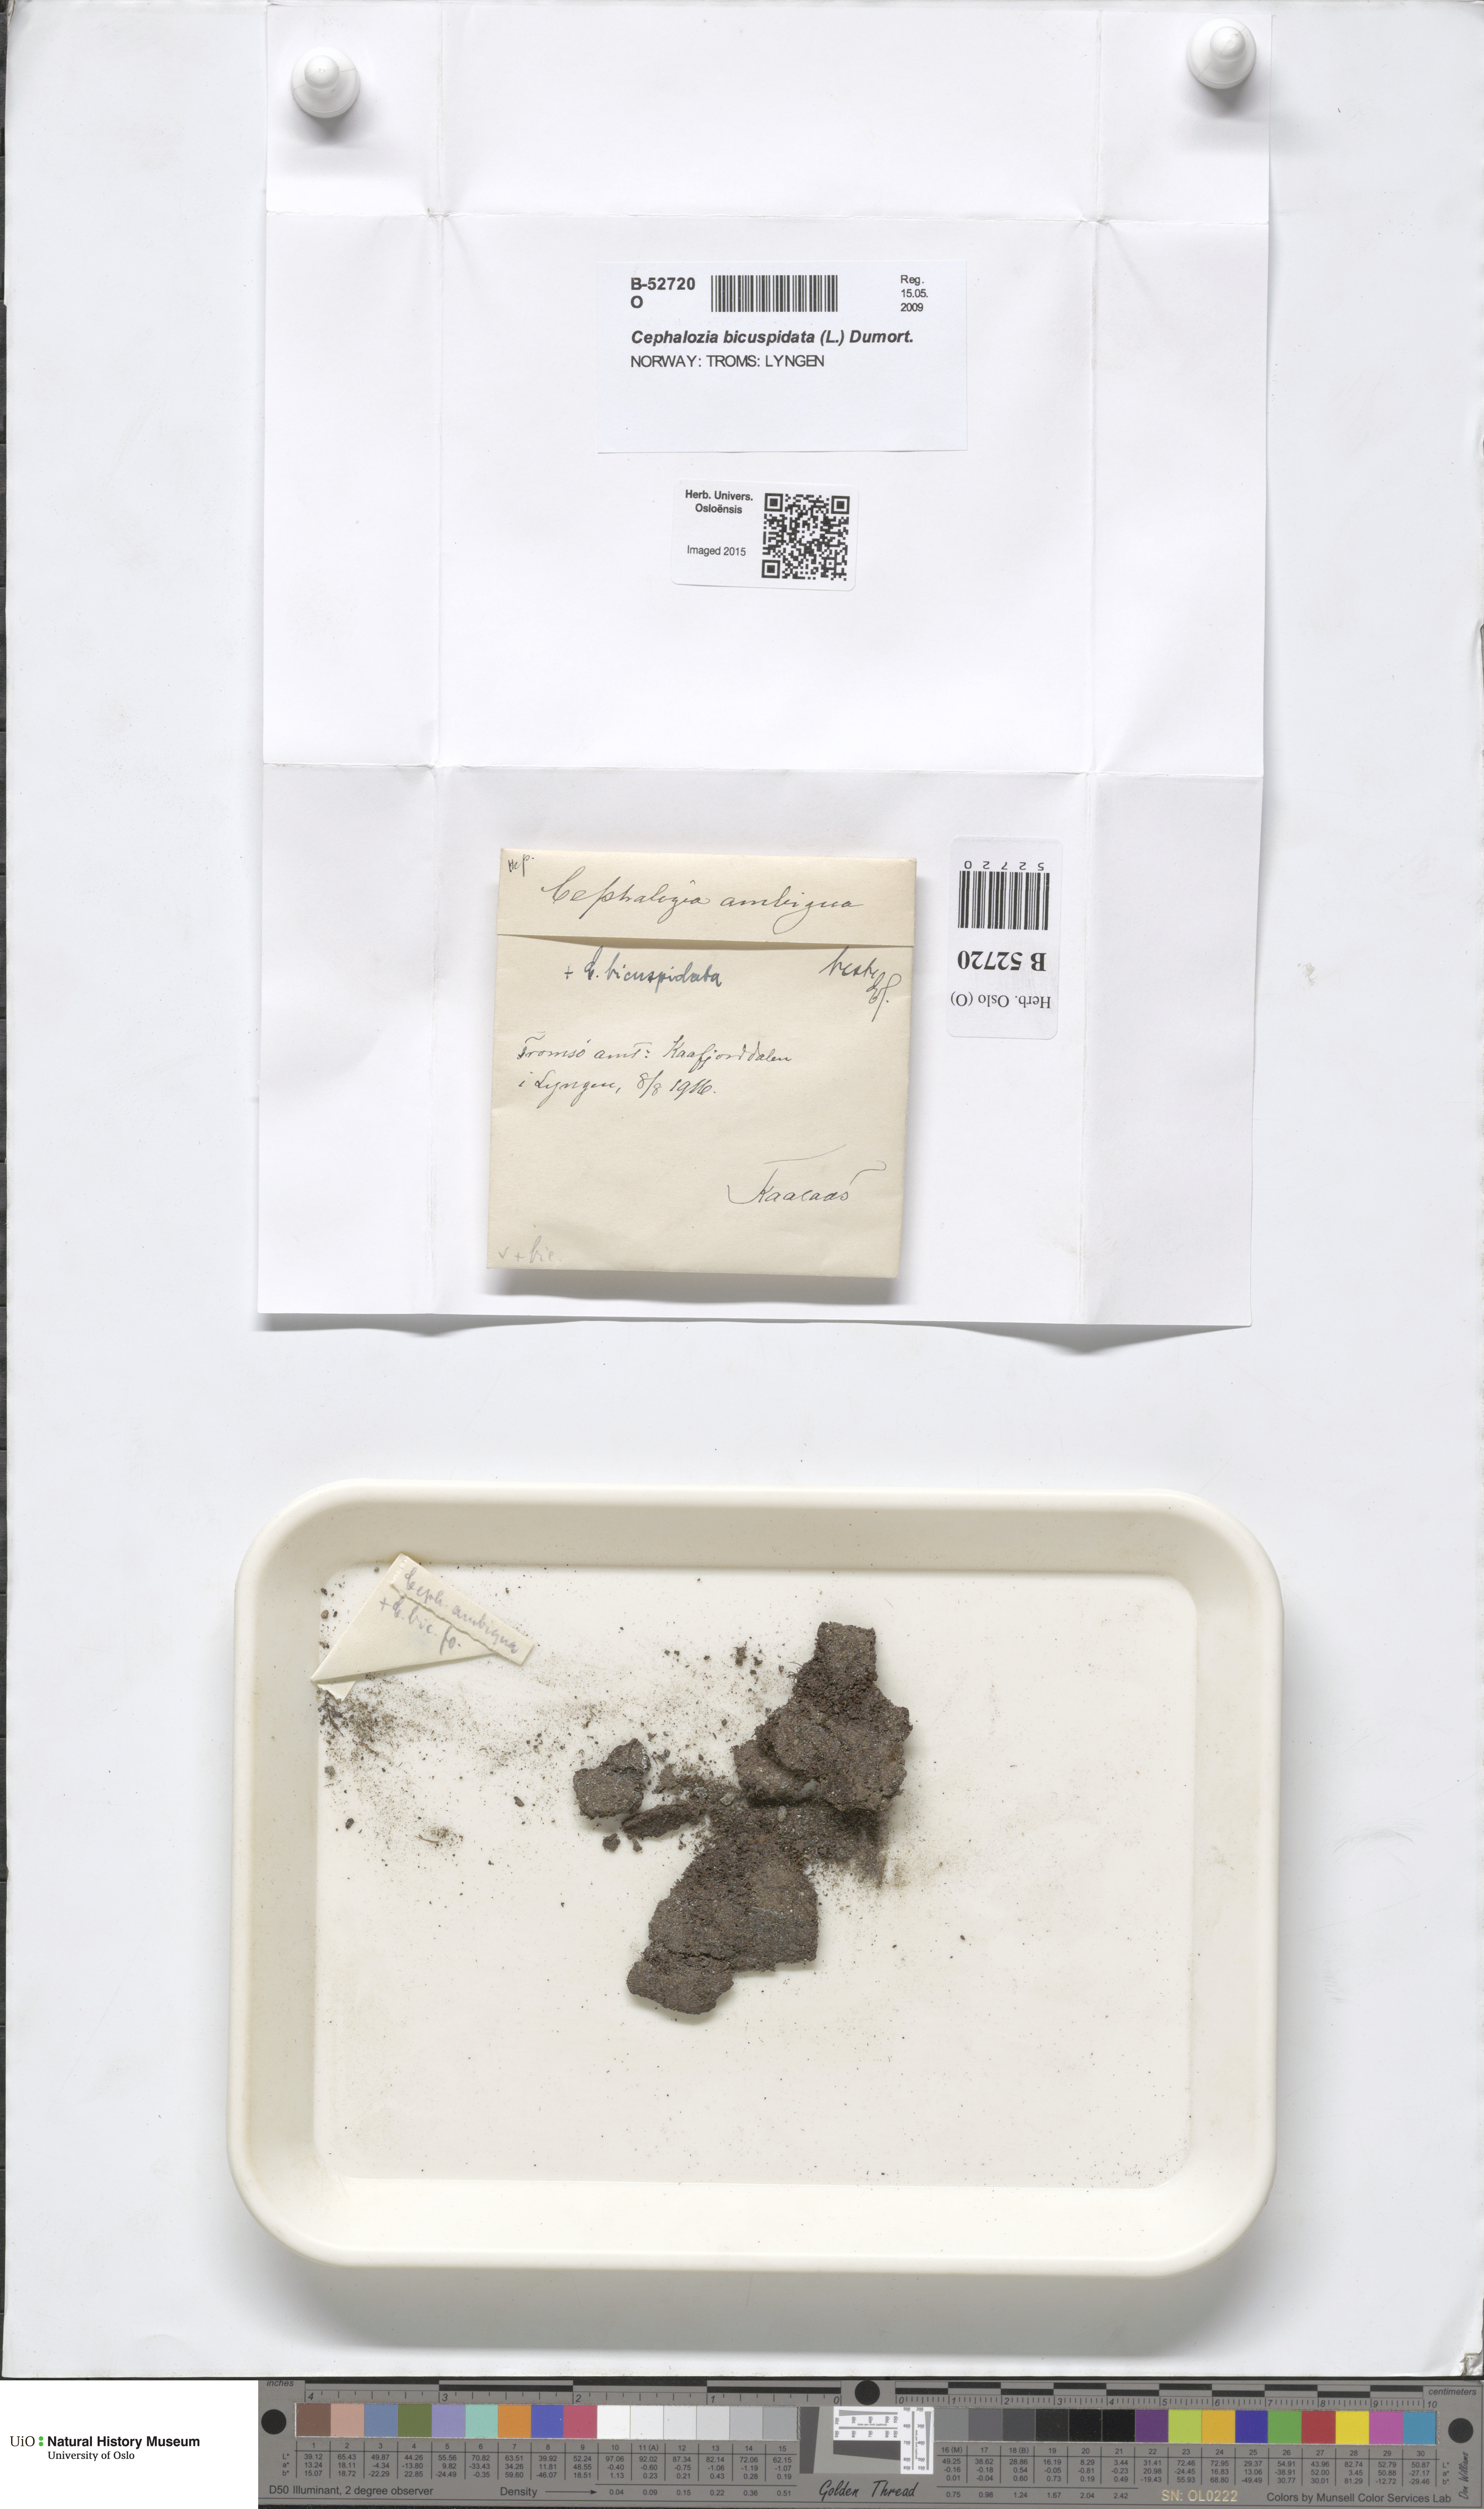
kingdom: Plantae
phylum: Marchantiophyta
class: Jungermanniopsida
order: Jungermanniales
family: Cephaloziaceae
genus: Cephalozia
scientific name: Cephalozia ambigua
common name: Snow pincerwort
